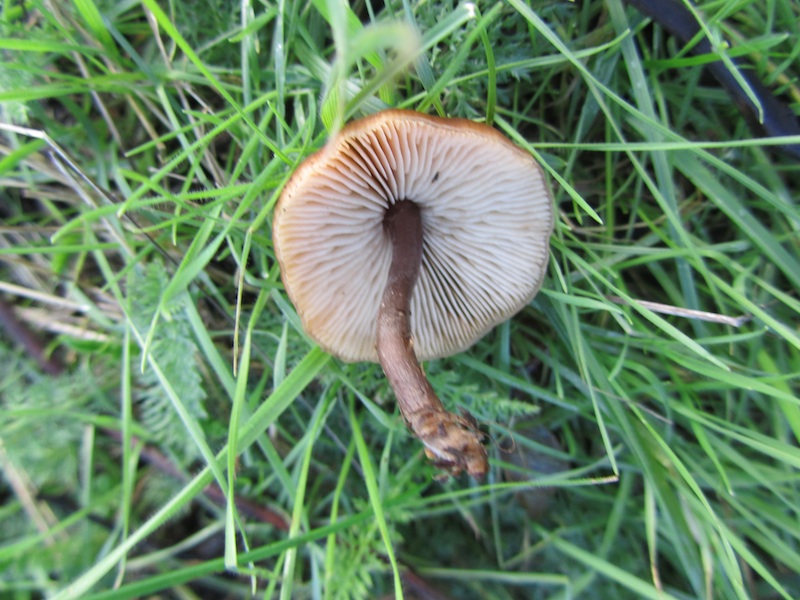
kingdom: Fungi
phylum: Basidiomycota
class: Agaricomycetes
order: Agaricales
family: Macrocystidiaceae
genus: Macrocystidia
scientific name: Macrocystidia cucumis
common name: agurkehat
